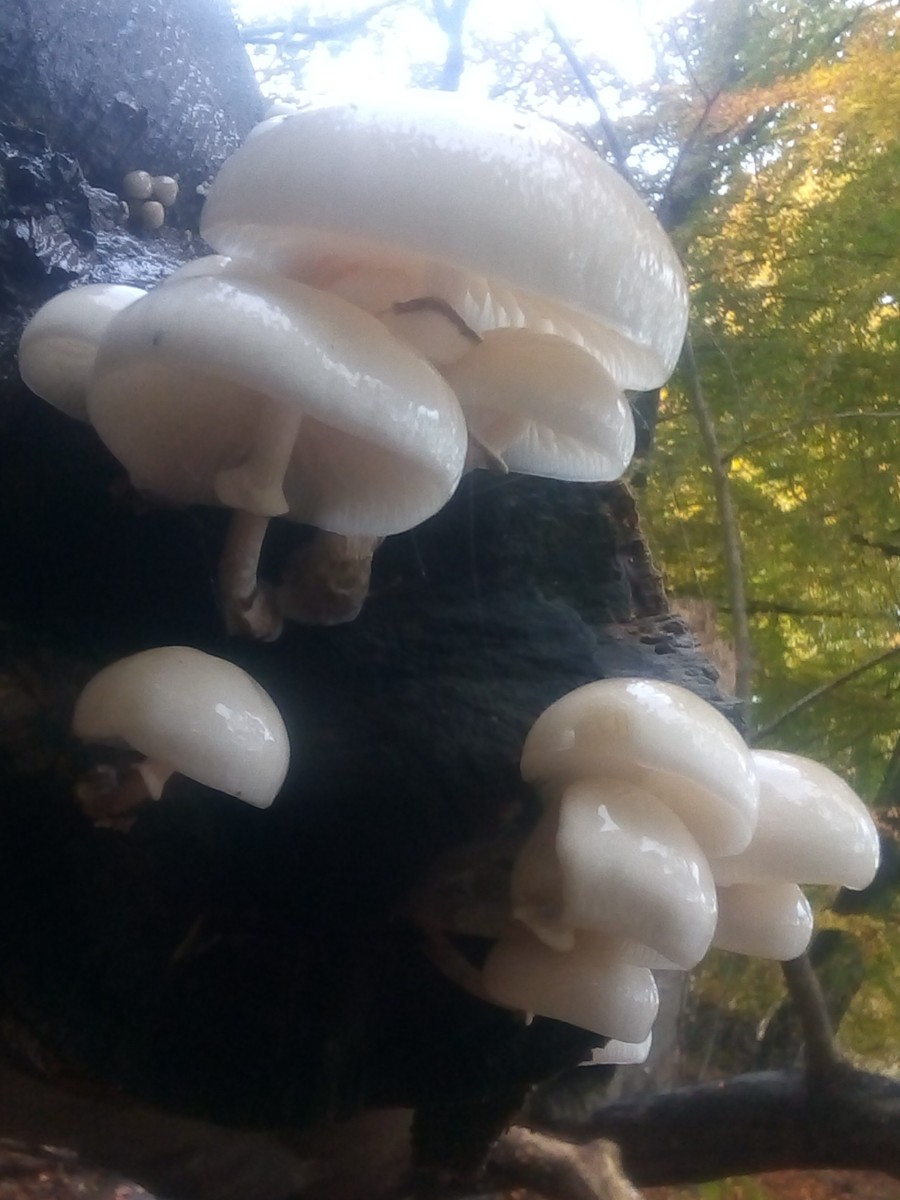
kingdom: Fungi
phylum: Basidiomycota
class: Agaricomycetes
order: Agaricales
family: Physalacriaceae
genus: Mucidula
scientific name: Mucidula mucida
